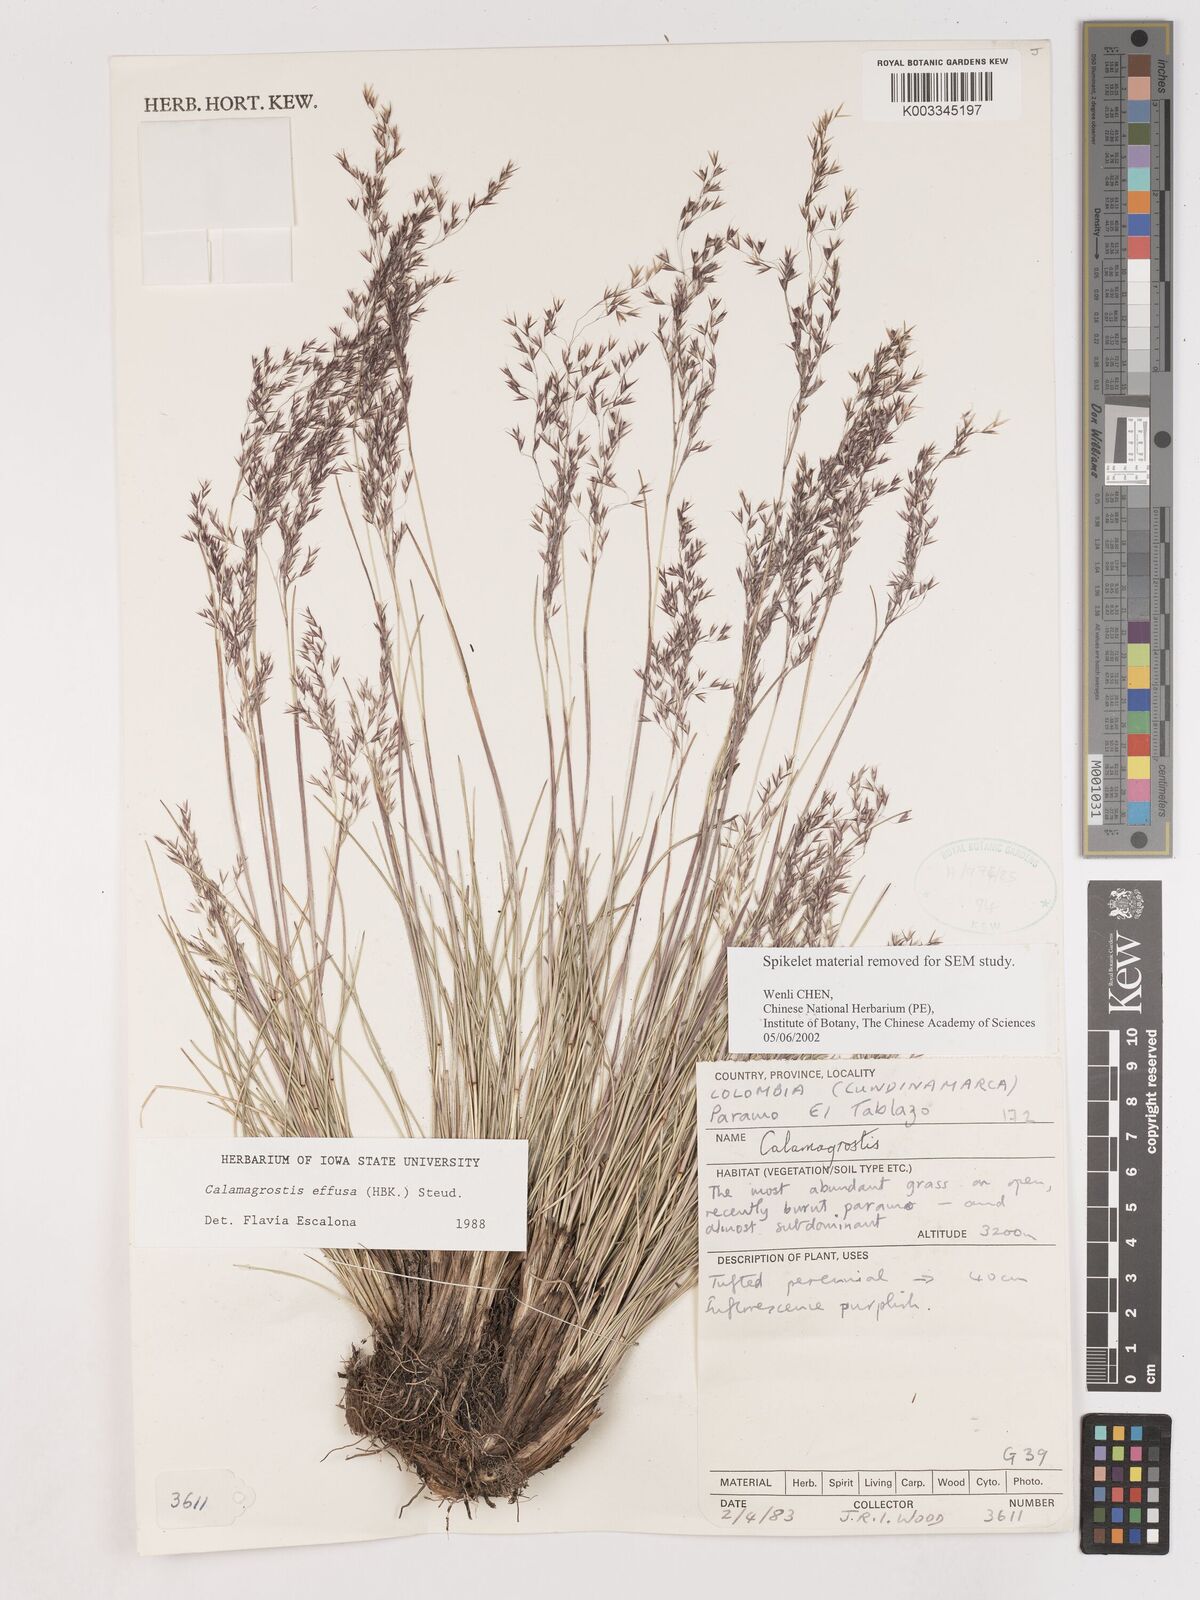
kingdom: Plantae
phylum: Tracheophyta
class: Liliopsida
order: Poales
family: Poaceae
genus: Paramochloa
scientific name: Paramochloa effusa
